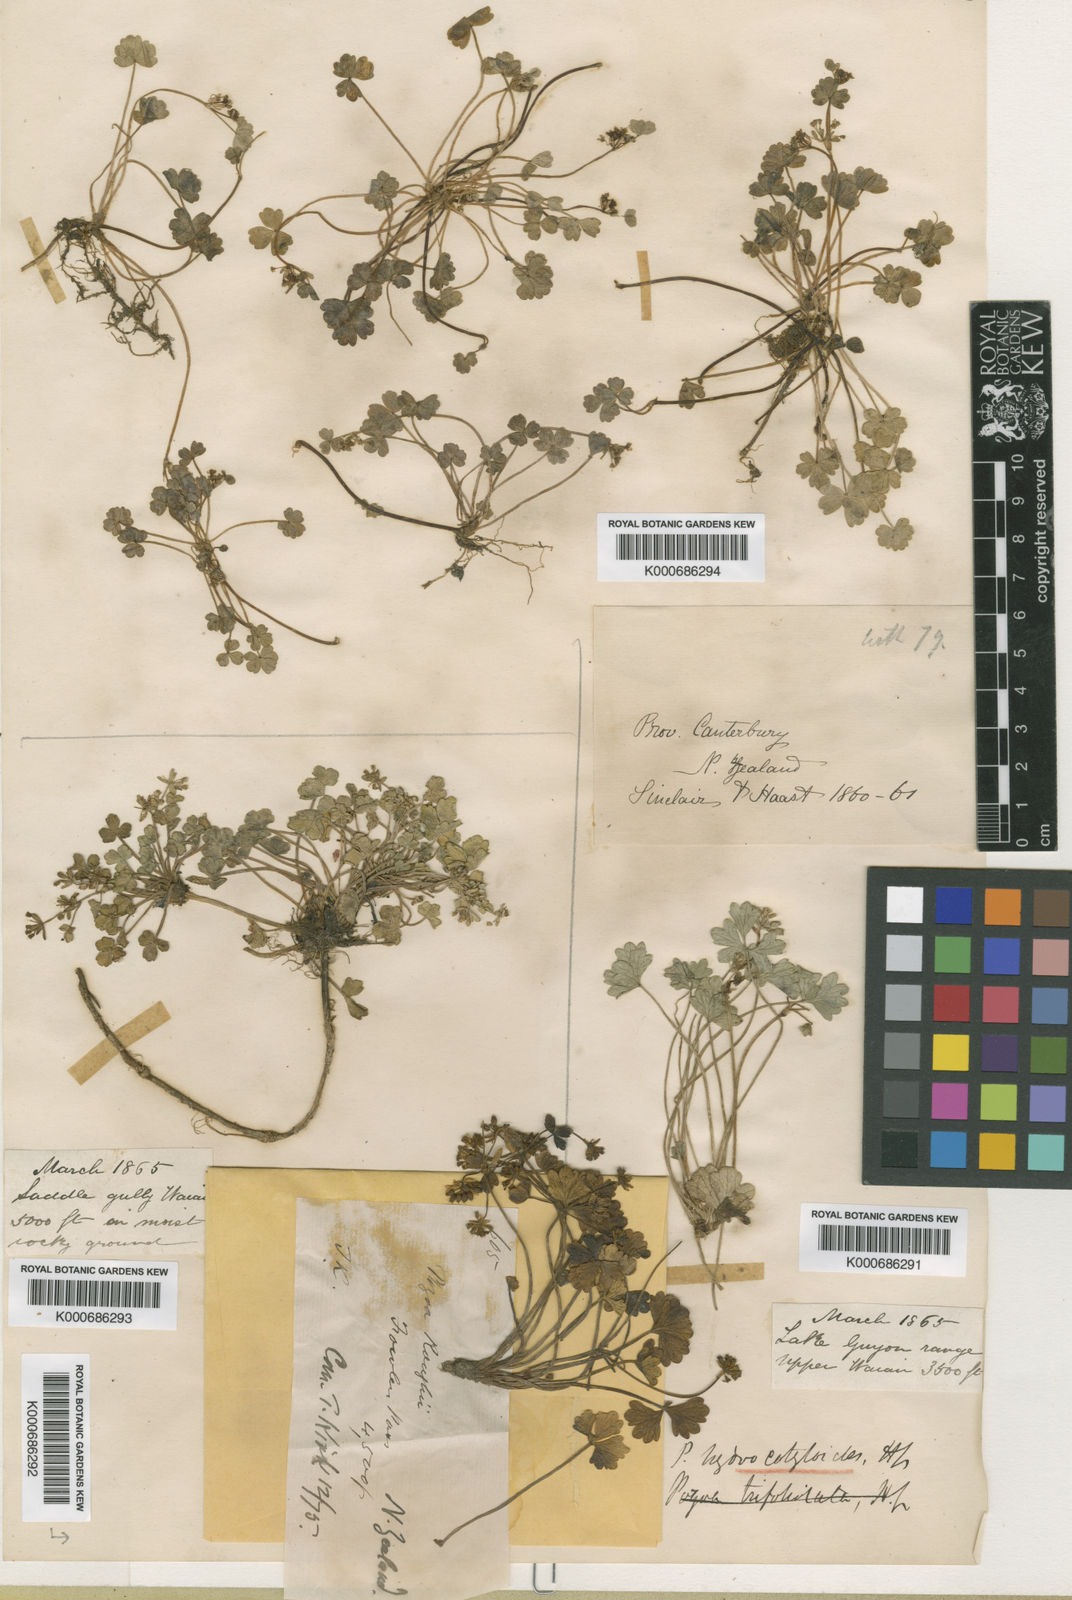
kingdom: Plantae
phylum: Tracheophyta
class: Magnoliopsida
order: Apiales
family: Apiaceae
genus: Azorella
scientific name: Azorella
